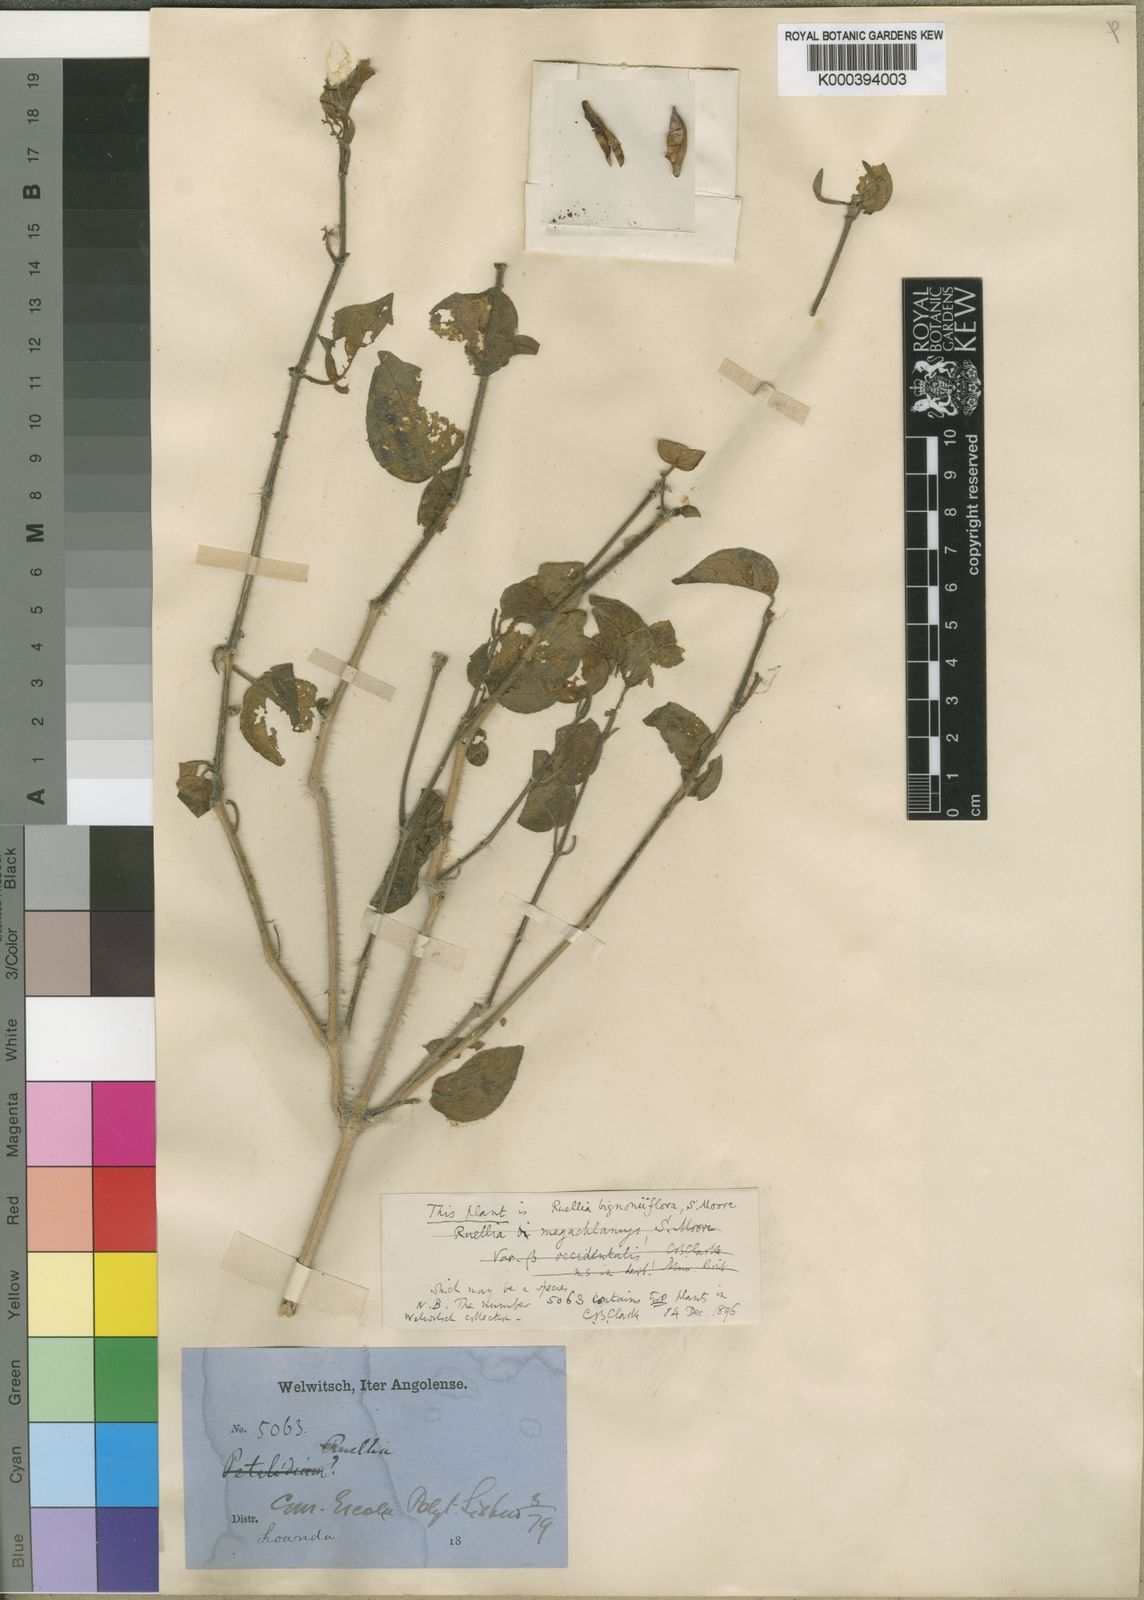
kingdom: Plantae
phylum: Tracheophyta
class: Magnoliopsida
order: Lamiales
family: Acanthaceae
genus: Ruellia
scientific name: Ruellia
